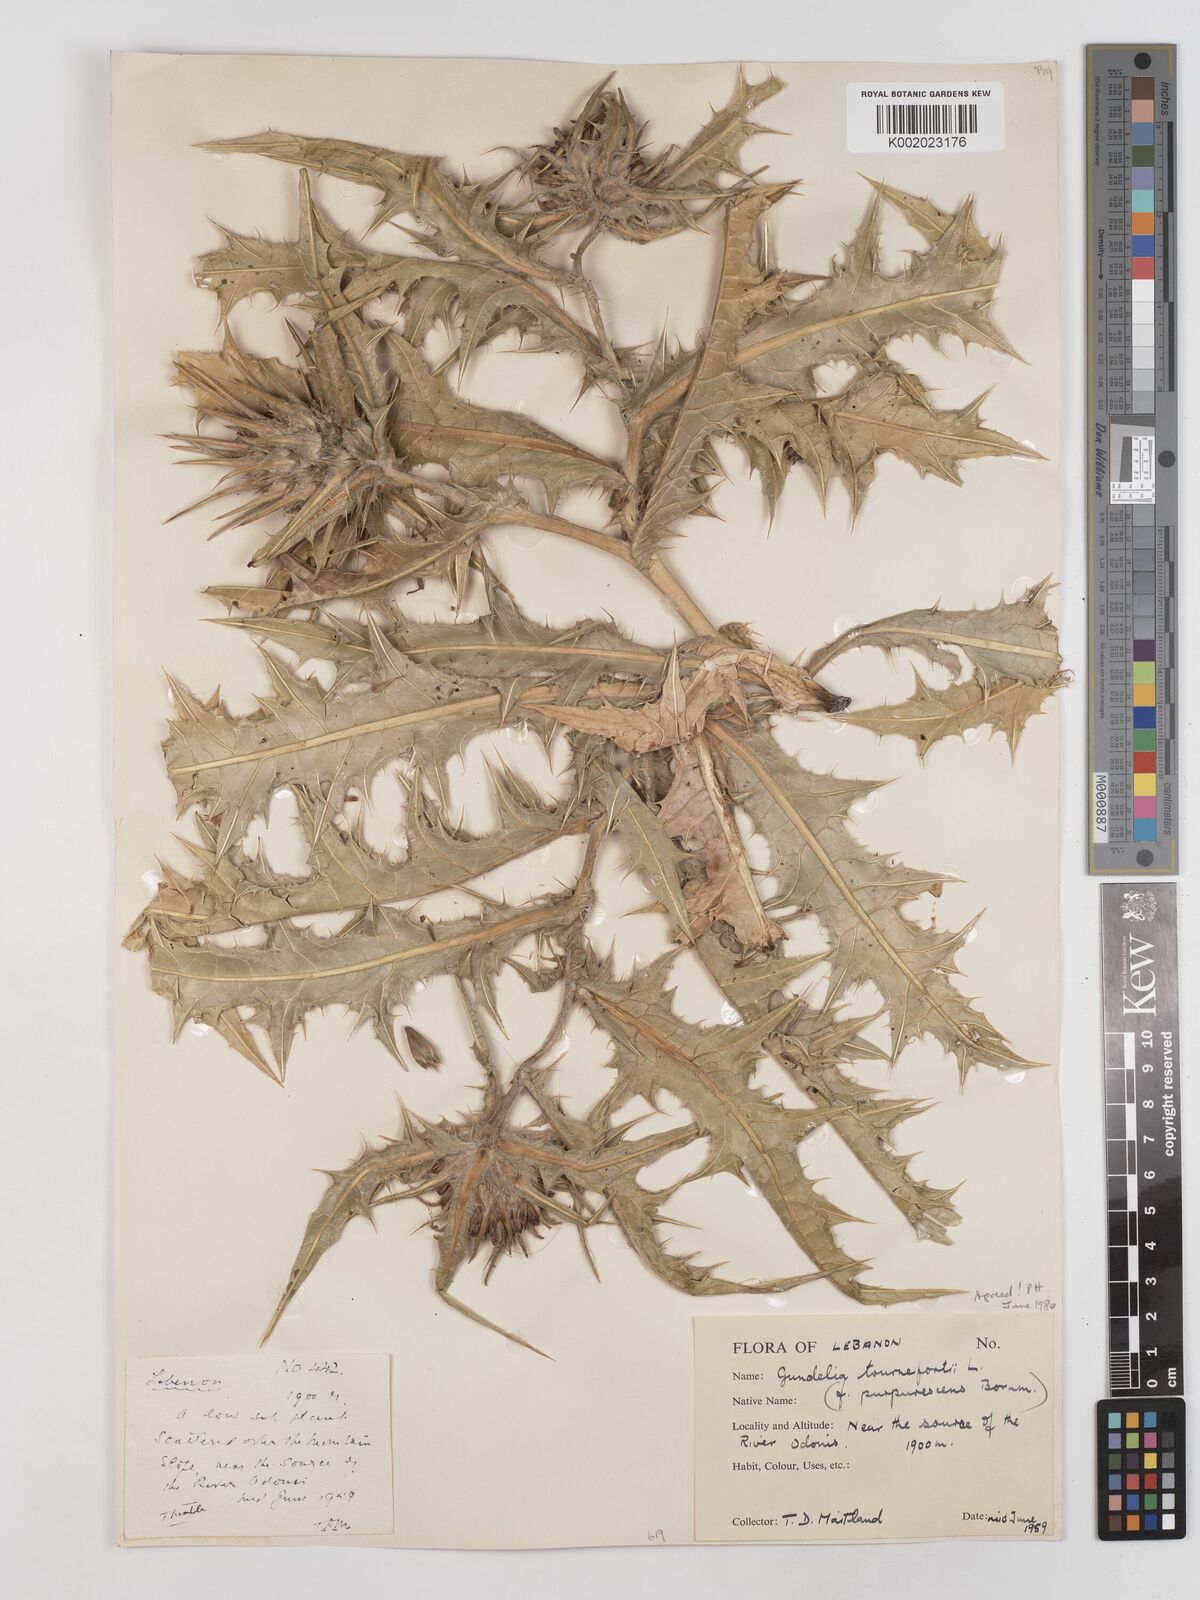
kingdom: Plantae
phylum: Tracheophyta
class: Magnoliopsida
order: Asterales
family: Asteraceae
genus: Gundelia
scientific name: Gundelia tournefortii
